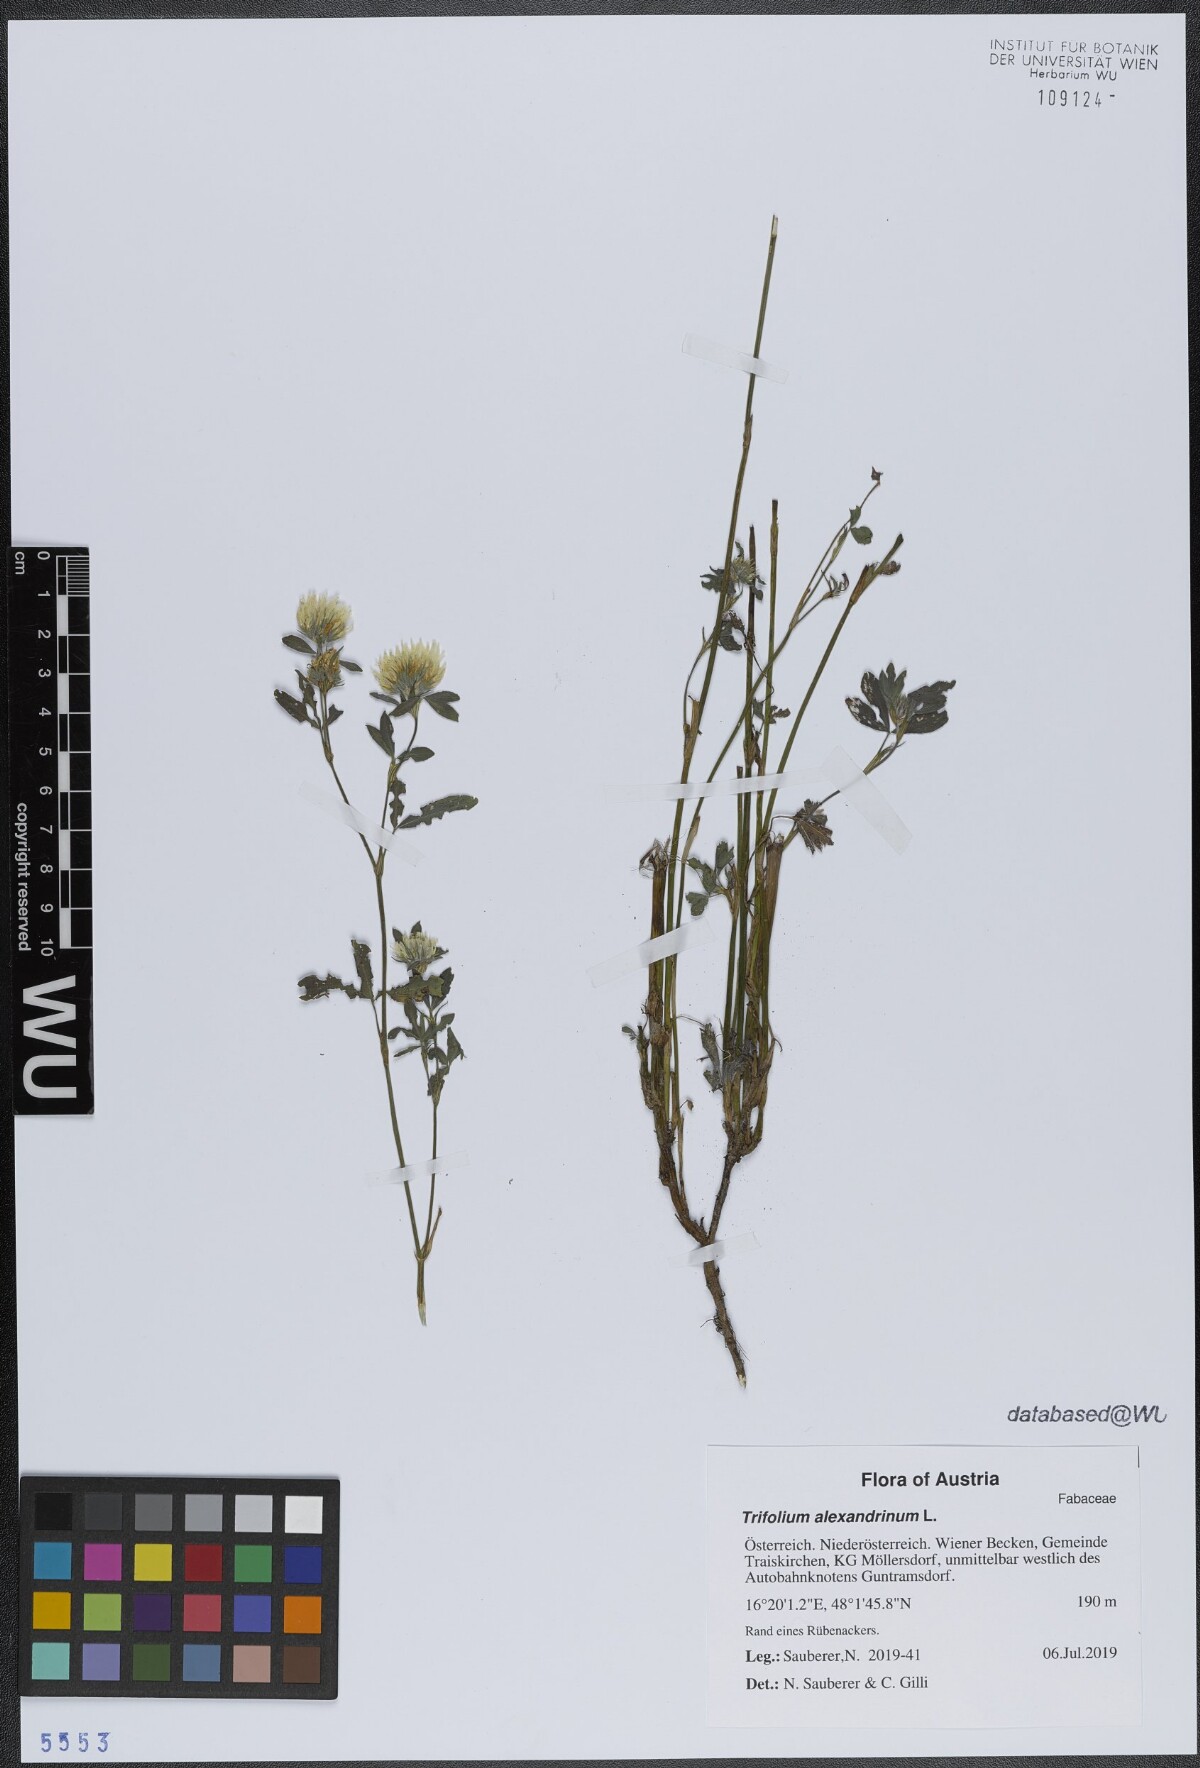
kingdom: Plantae
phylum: Tracheophyta
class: Magnoliopsida
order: Fabales
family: Fabaceae
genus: Trifolium
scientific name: Trifolium alexandrinum
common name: Egyptian clover
